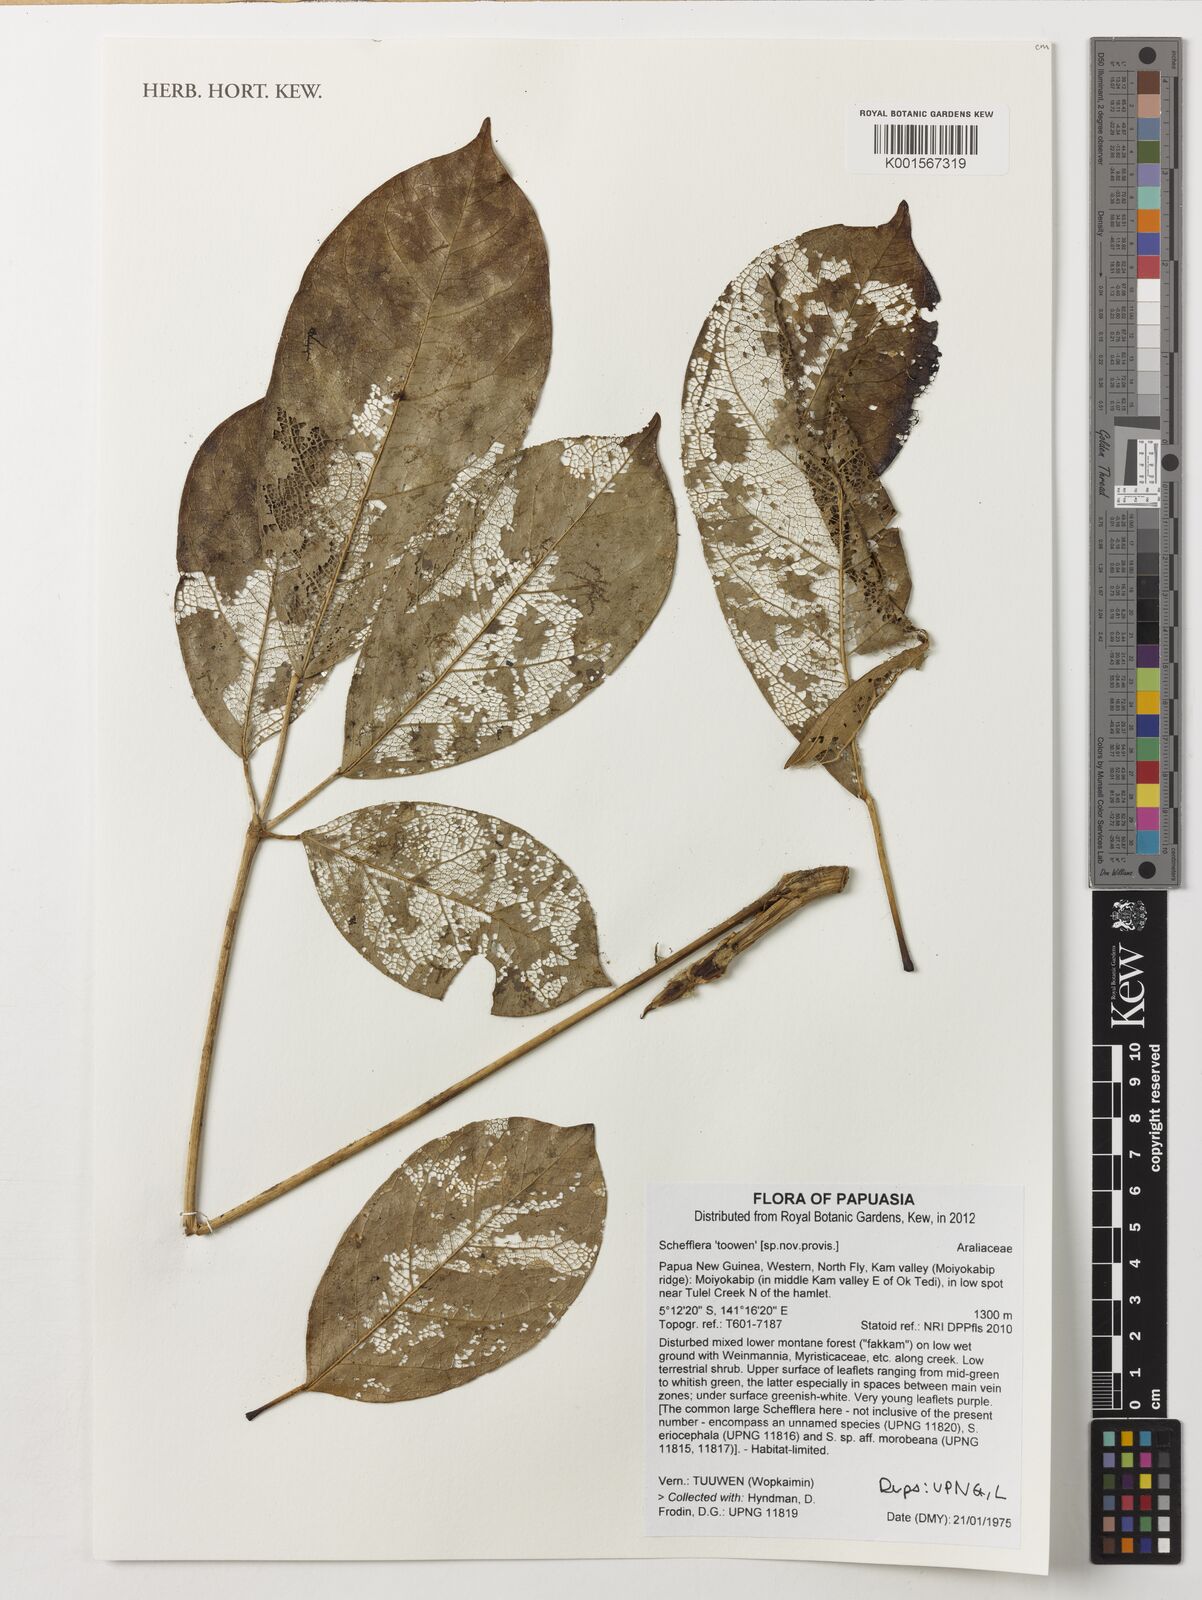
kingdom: Plantae
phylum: Tracheophyta
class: Magnoliopsida
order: Apiales
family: Araliaceae
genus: Schefflera
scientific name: Schefflera
